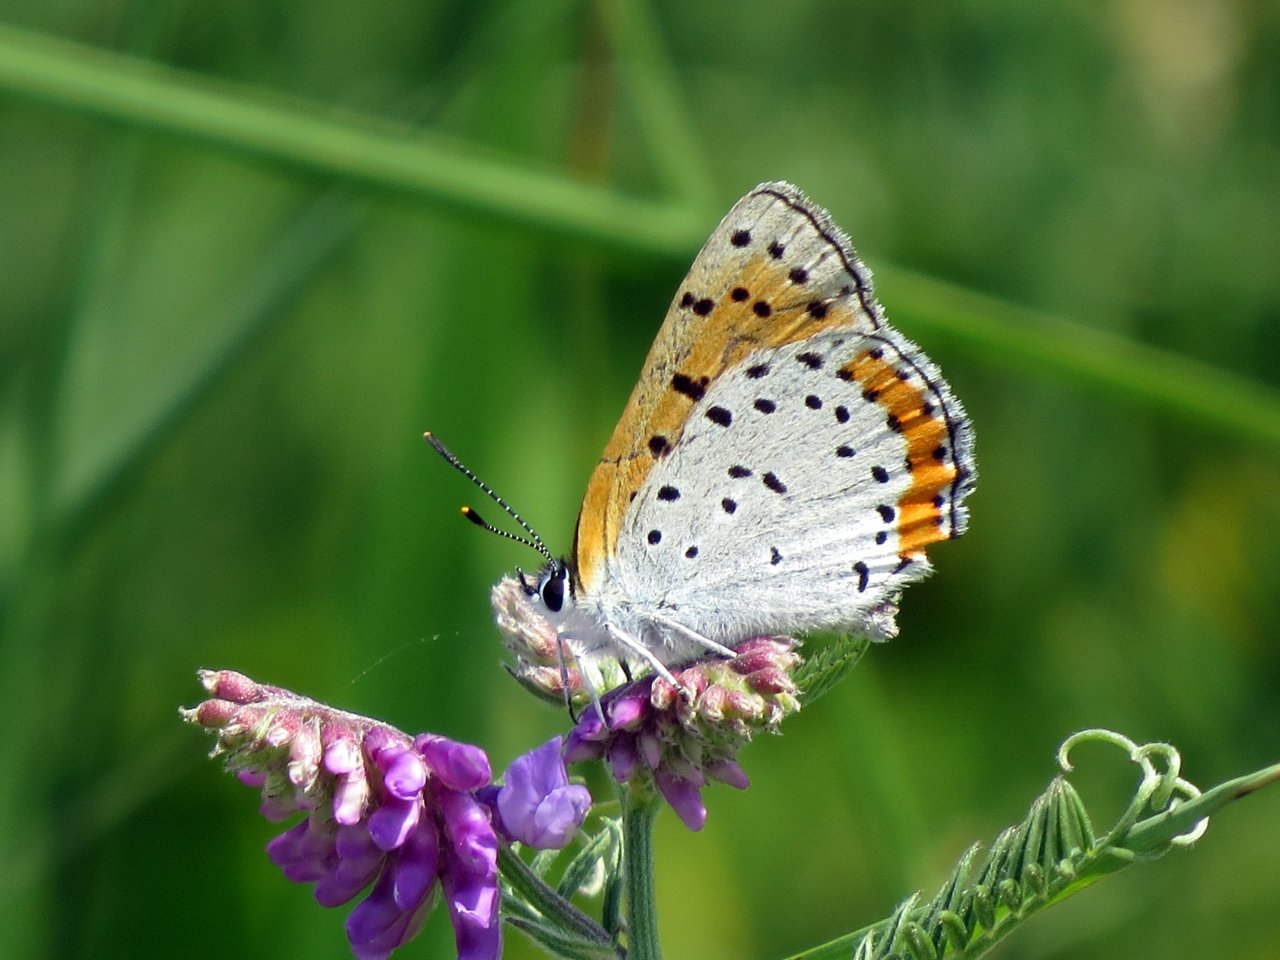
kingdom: Animalia
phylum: Arthropoda
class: Insecta
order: Lepidoptera
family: Sesiidae
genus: Sesia
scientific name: Sesia Lycaena hyllus
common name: Bronze Copper
